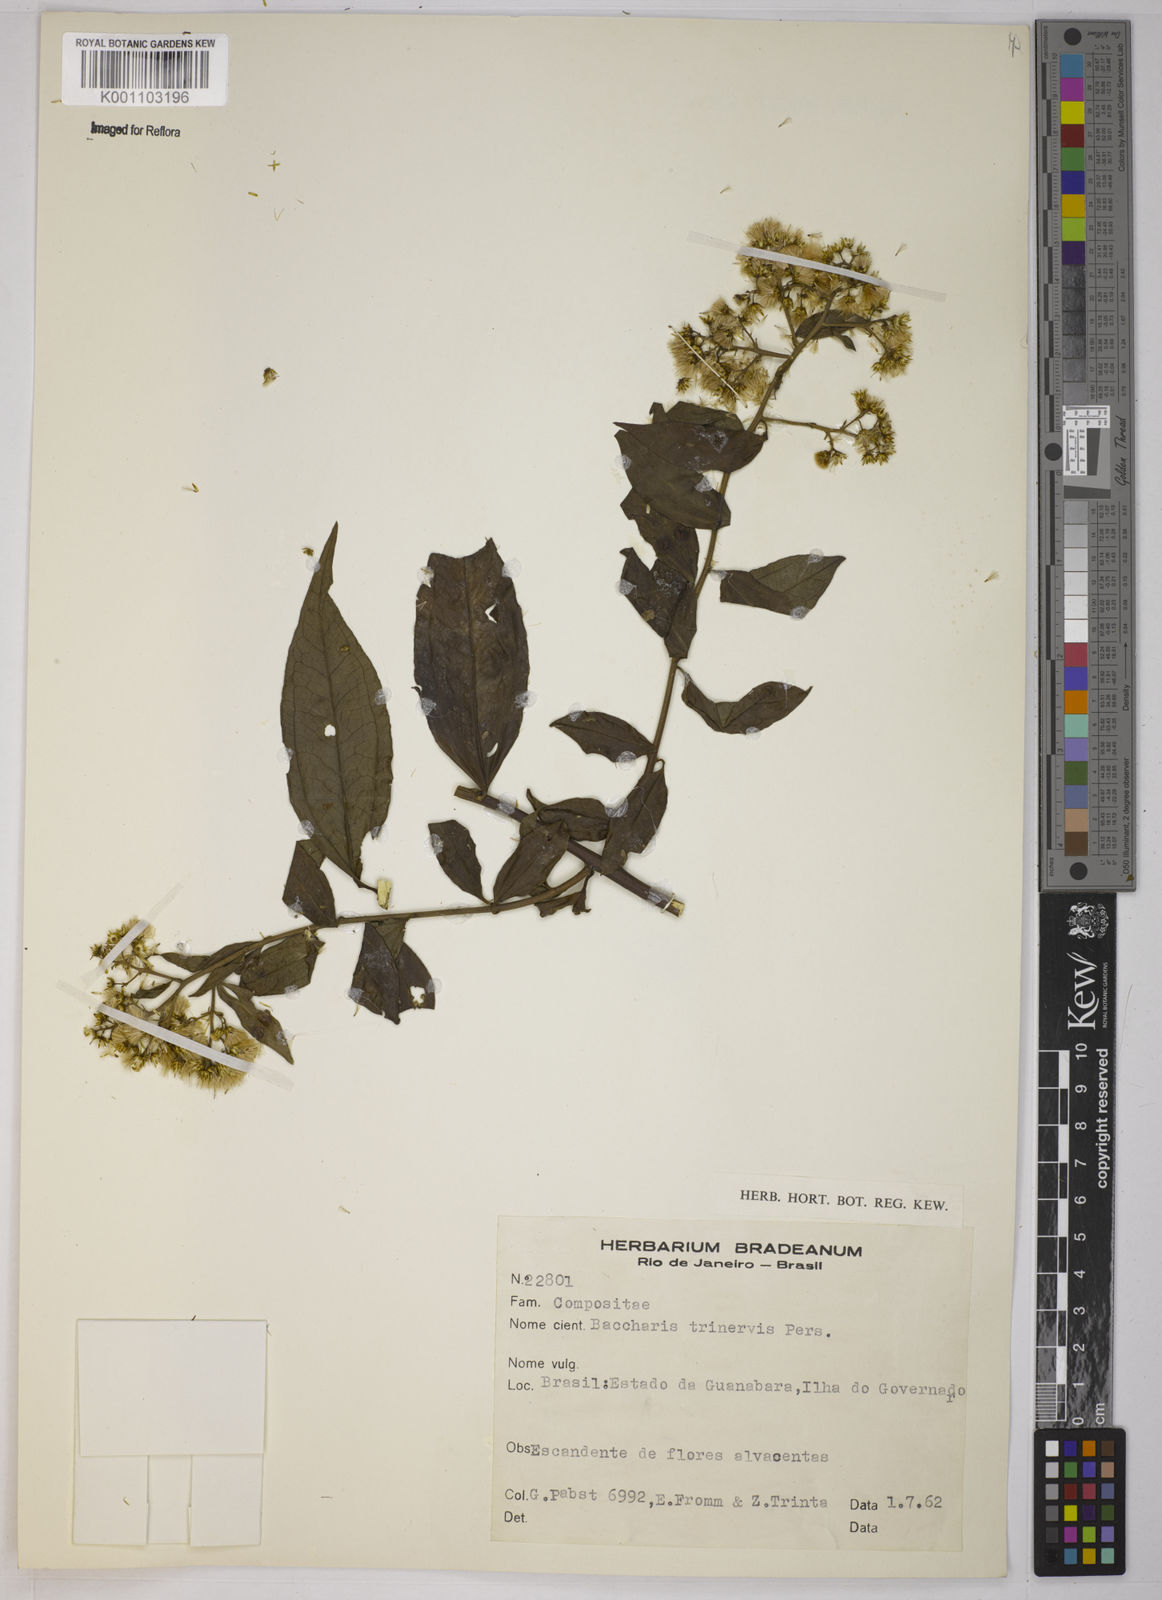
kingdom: Plantae
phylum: Tracheophyta
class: Magnoliopsida
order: Asterales
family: Asteraceae
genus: Baccharis
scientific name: Baccharis trinervis
